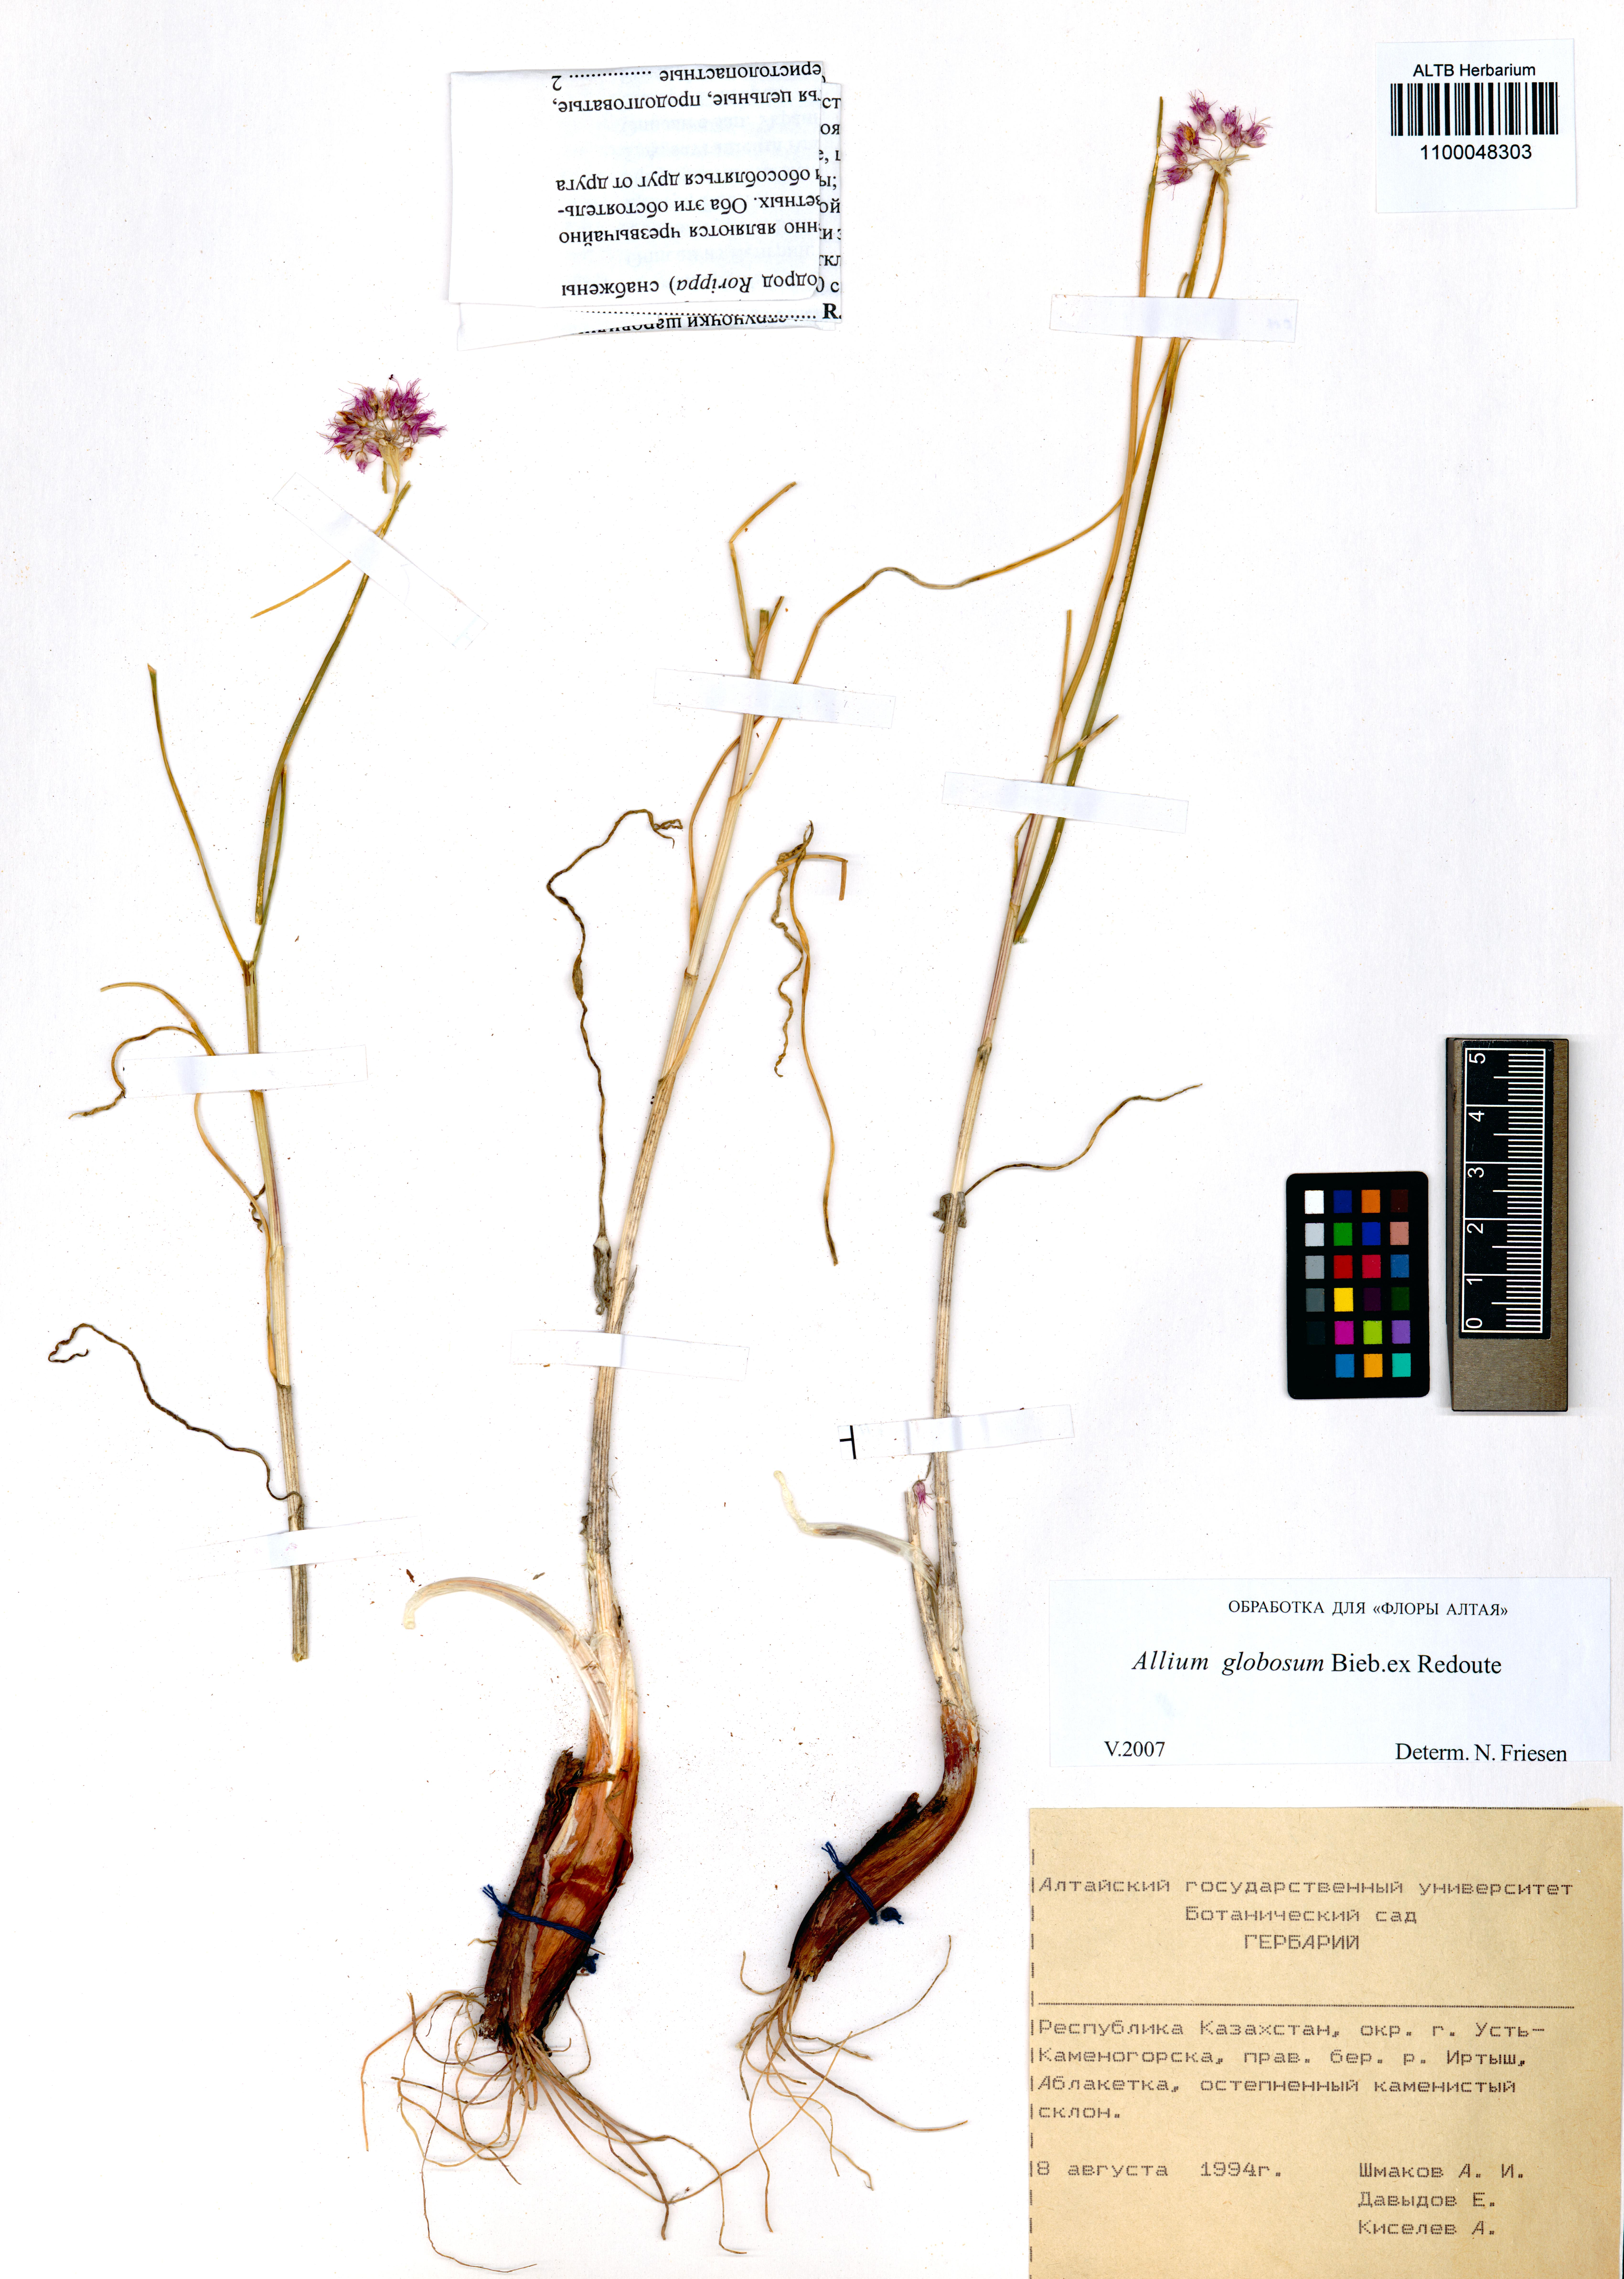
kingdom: Plantae
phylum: Tracheophyta
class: Liliopsida
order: Asparagales
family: Amaryllidaceae
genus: Allium
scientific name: Allium saxatile
